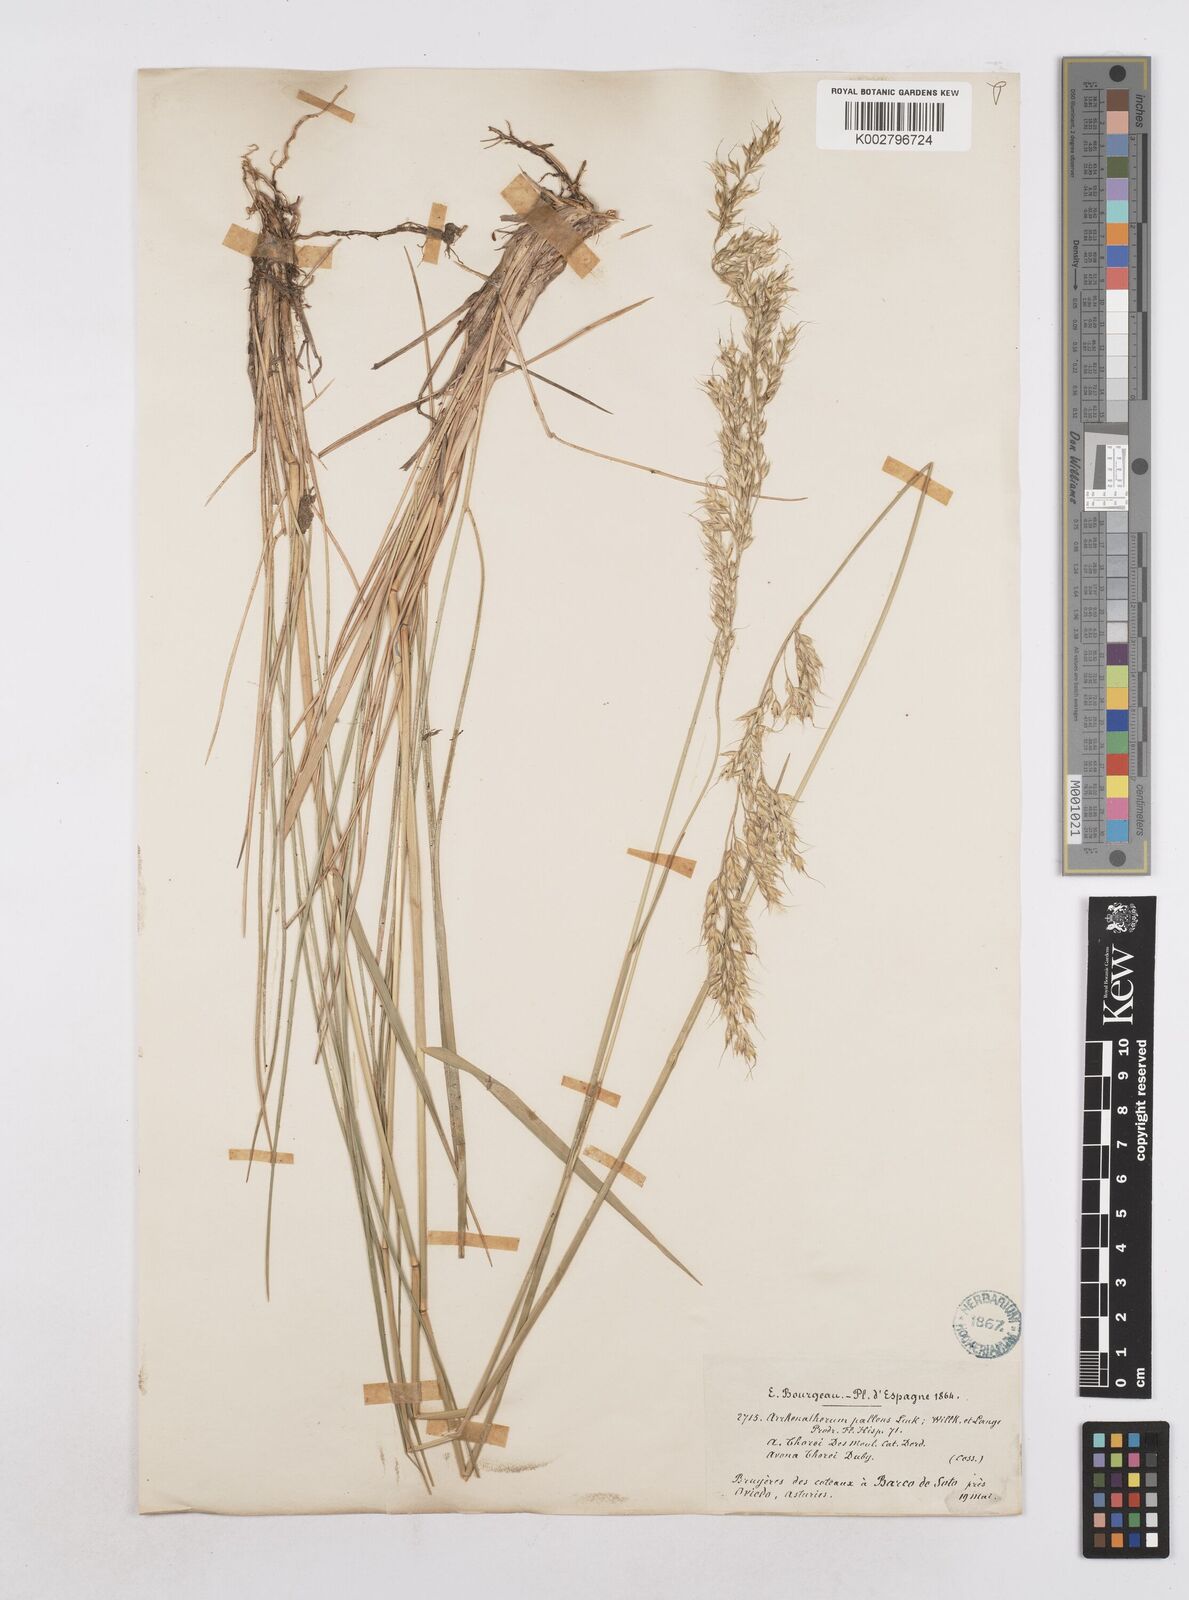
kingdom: Plantae
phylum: Tracheophyta
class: Liliopsida
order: Poales
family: Poaceae
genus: Arrhenatherum
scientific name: Arrhenatherum longifolium
